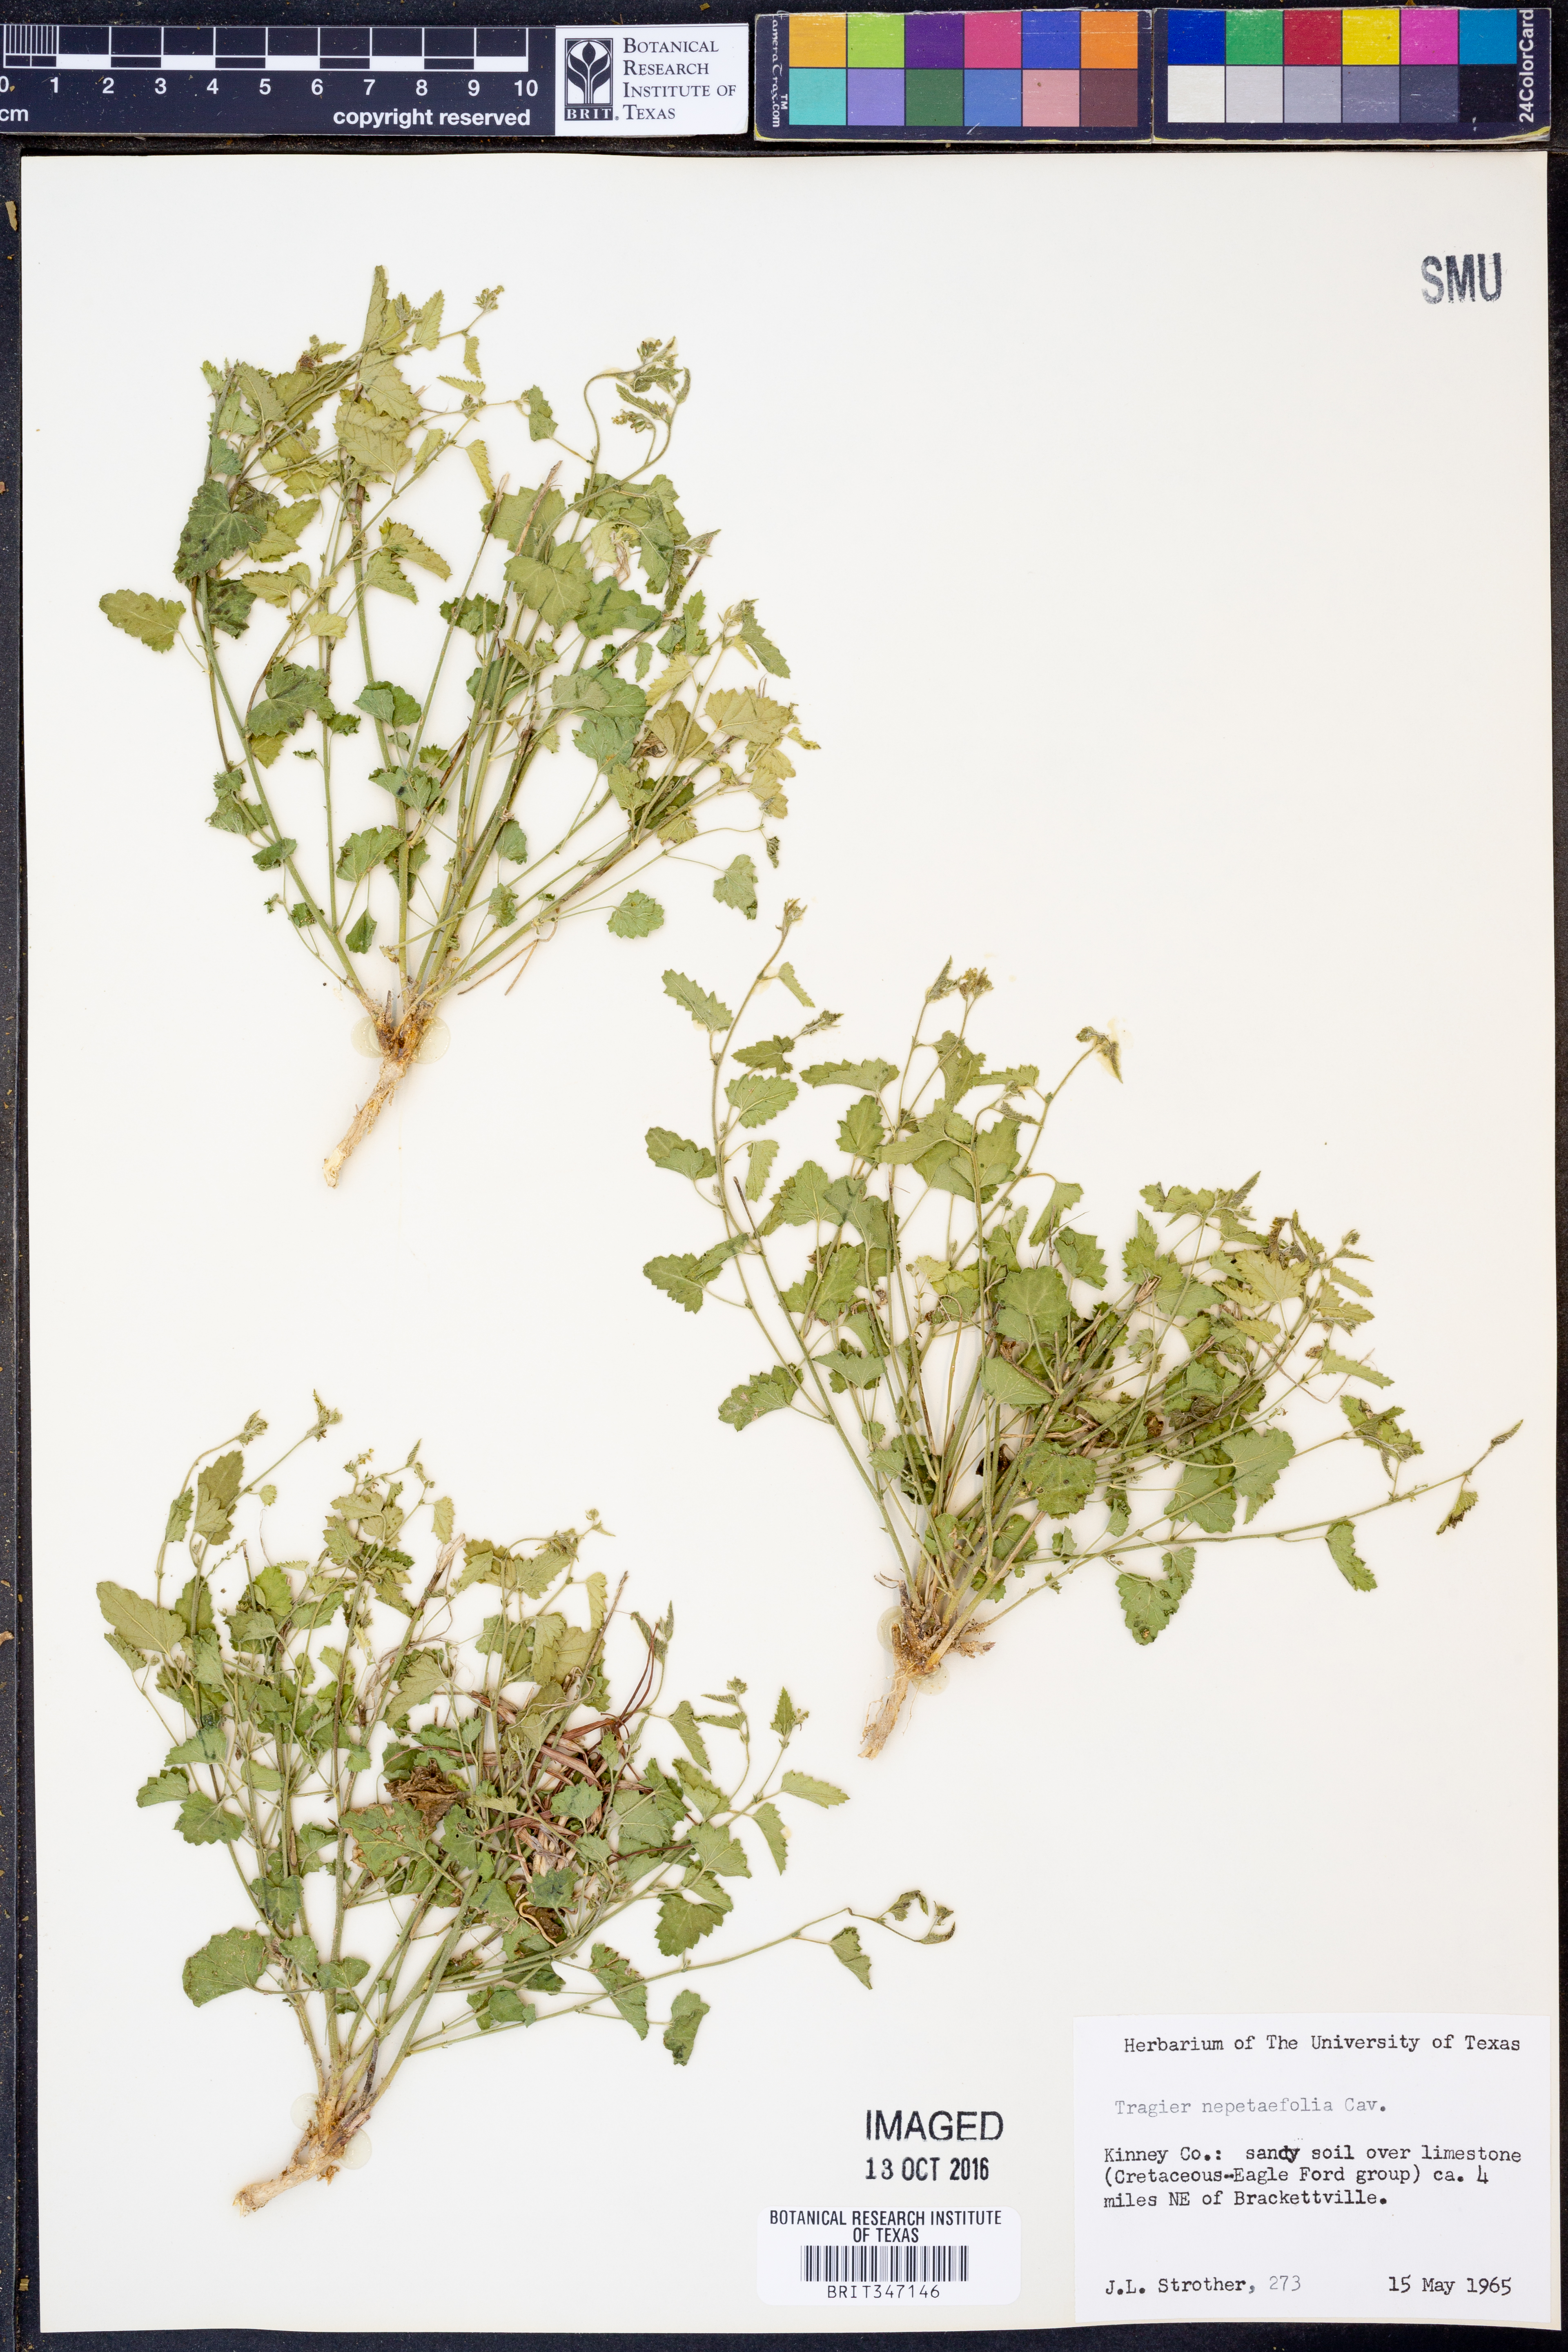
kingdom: Plantae
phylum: Tracheophyta
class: Magnoliopsida
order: Malpighiales
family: Euphorbiaceae
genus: Tragia
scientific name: Tragia nepetifolia
